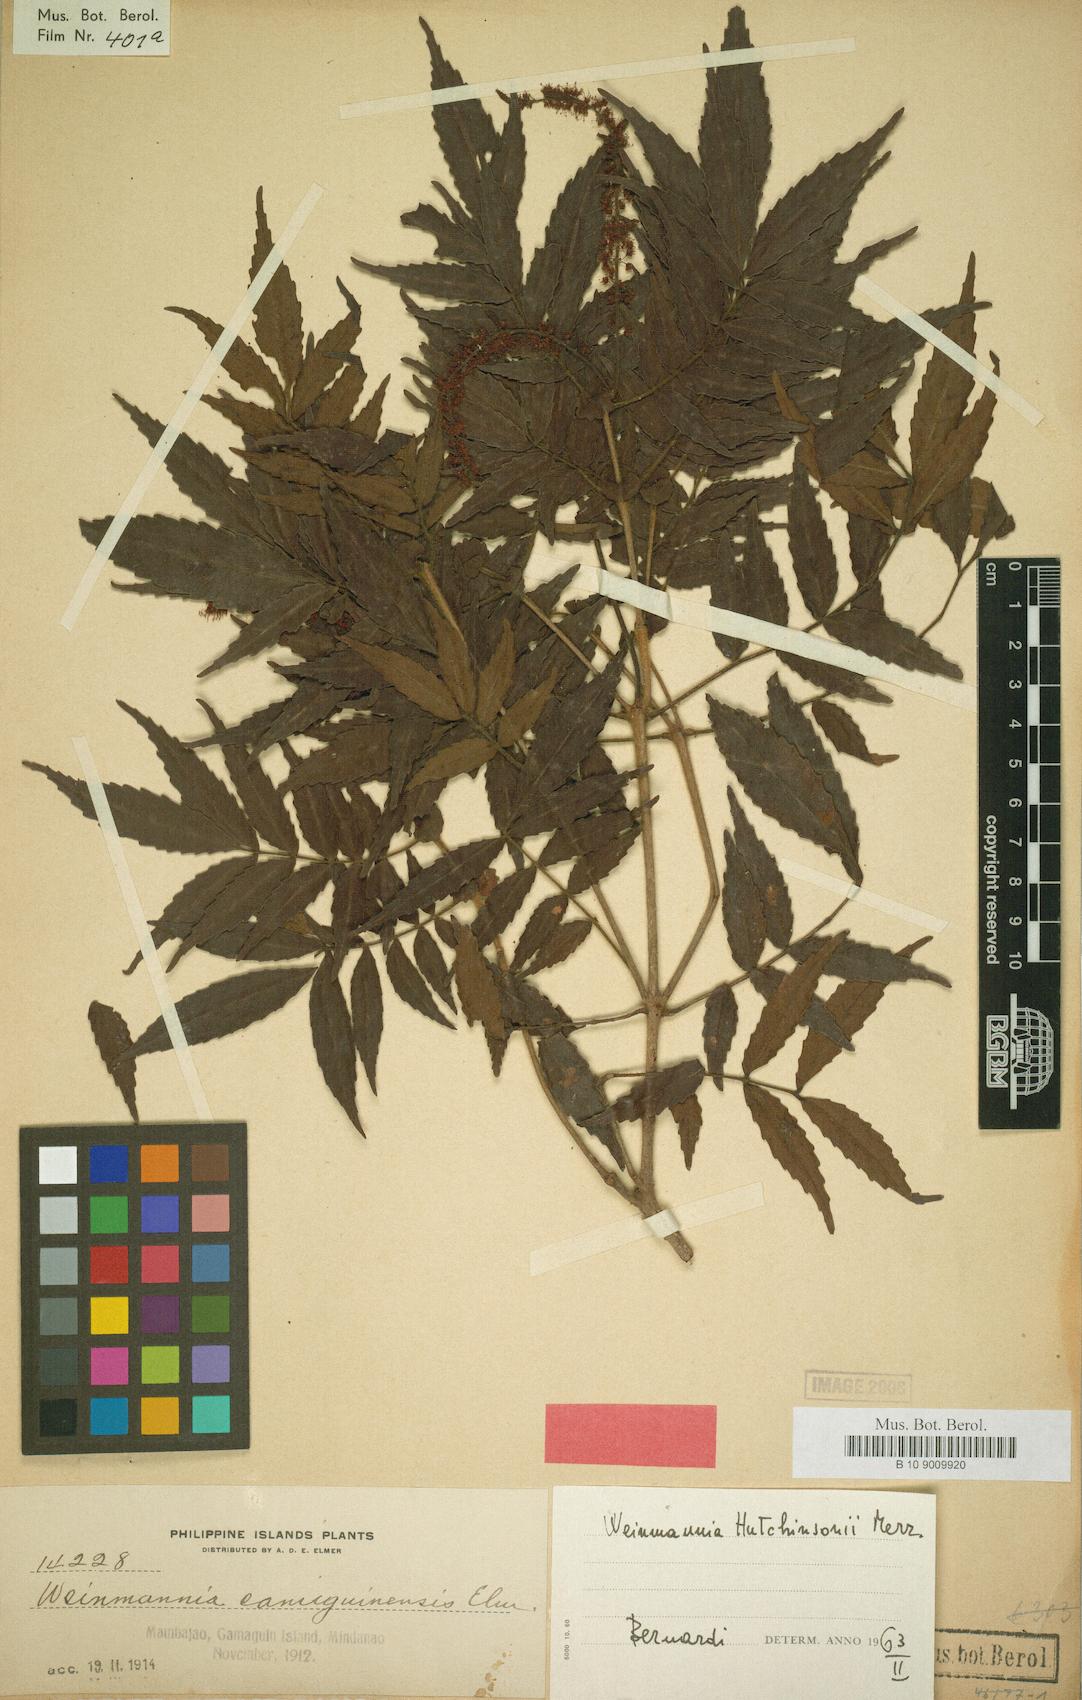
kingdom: Plantae
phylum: Tracheophyta
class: Magnoliopsida
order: Oxalidales
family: Cunoniaceae
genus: Pterophylla
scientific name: Pterophylla hutchinsonii
